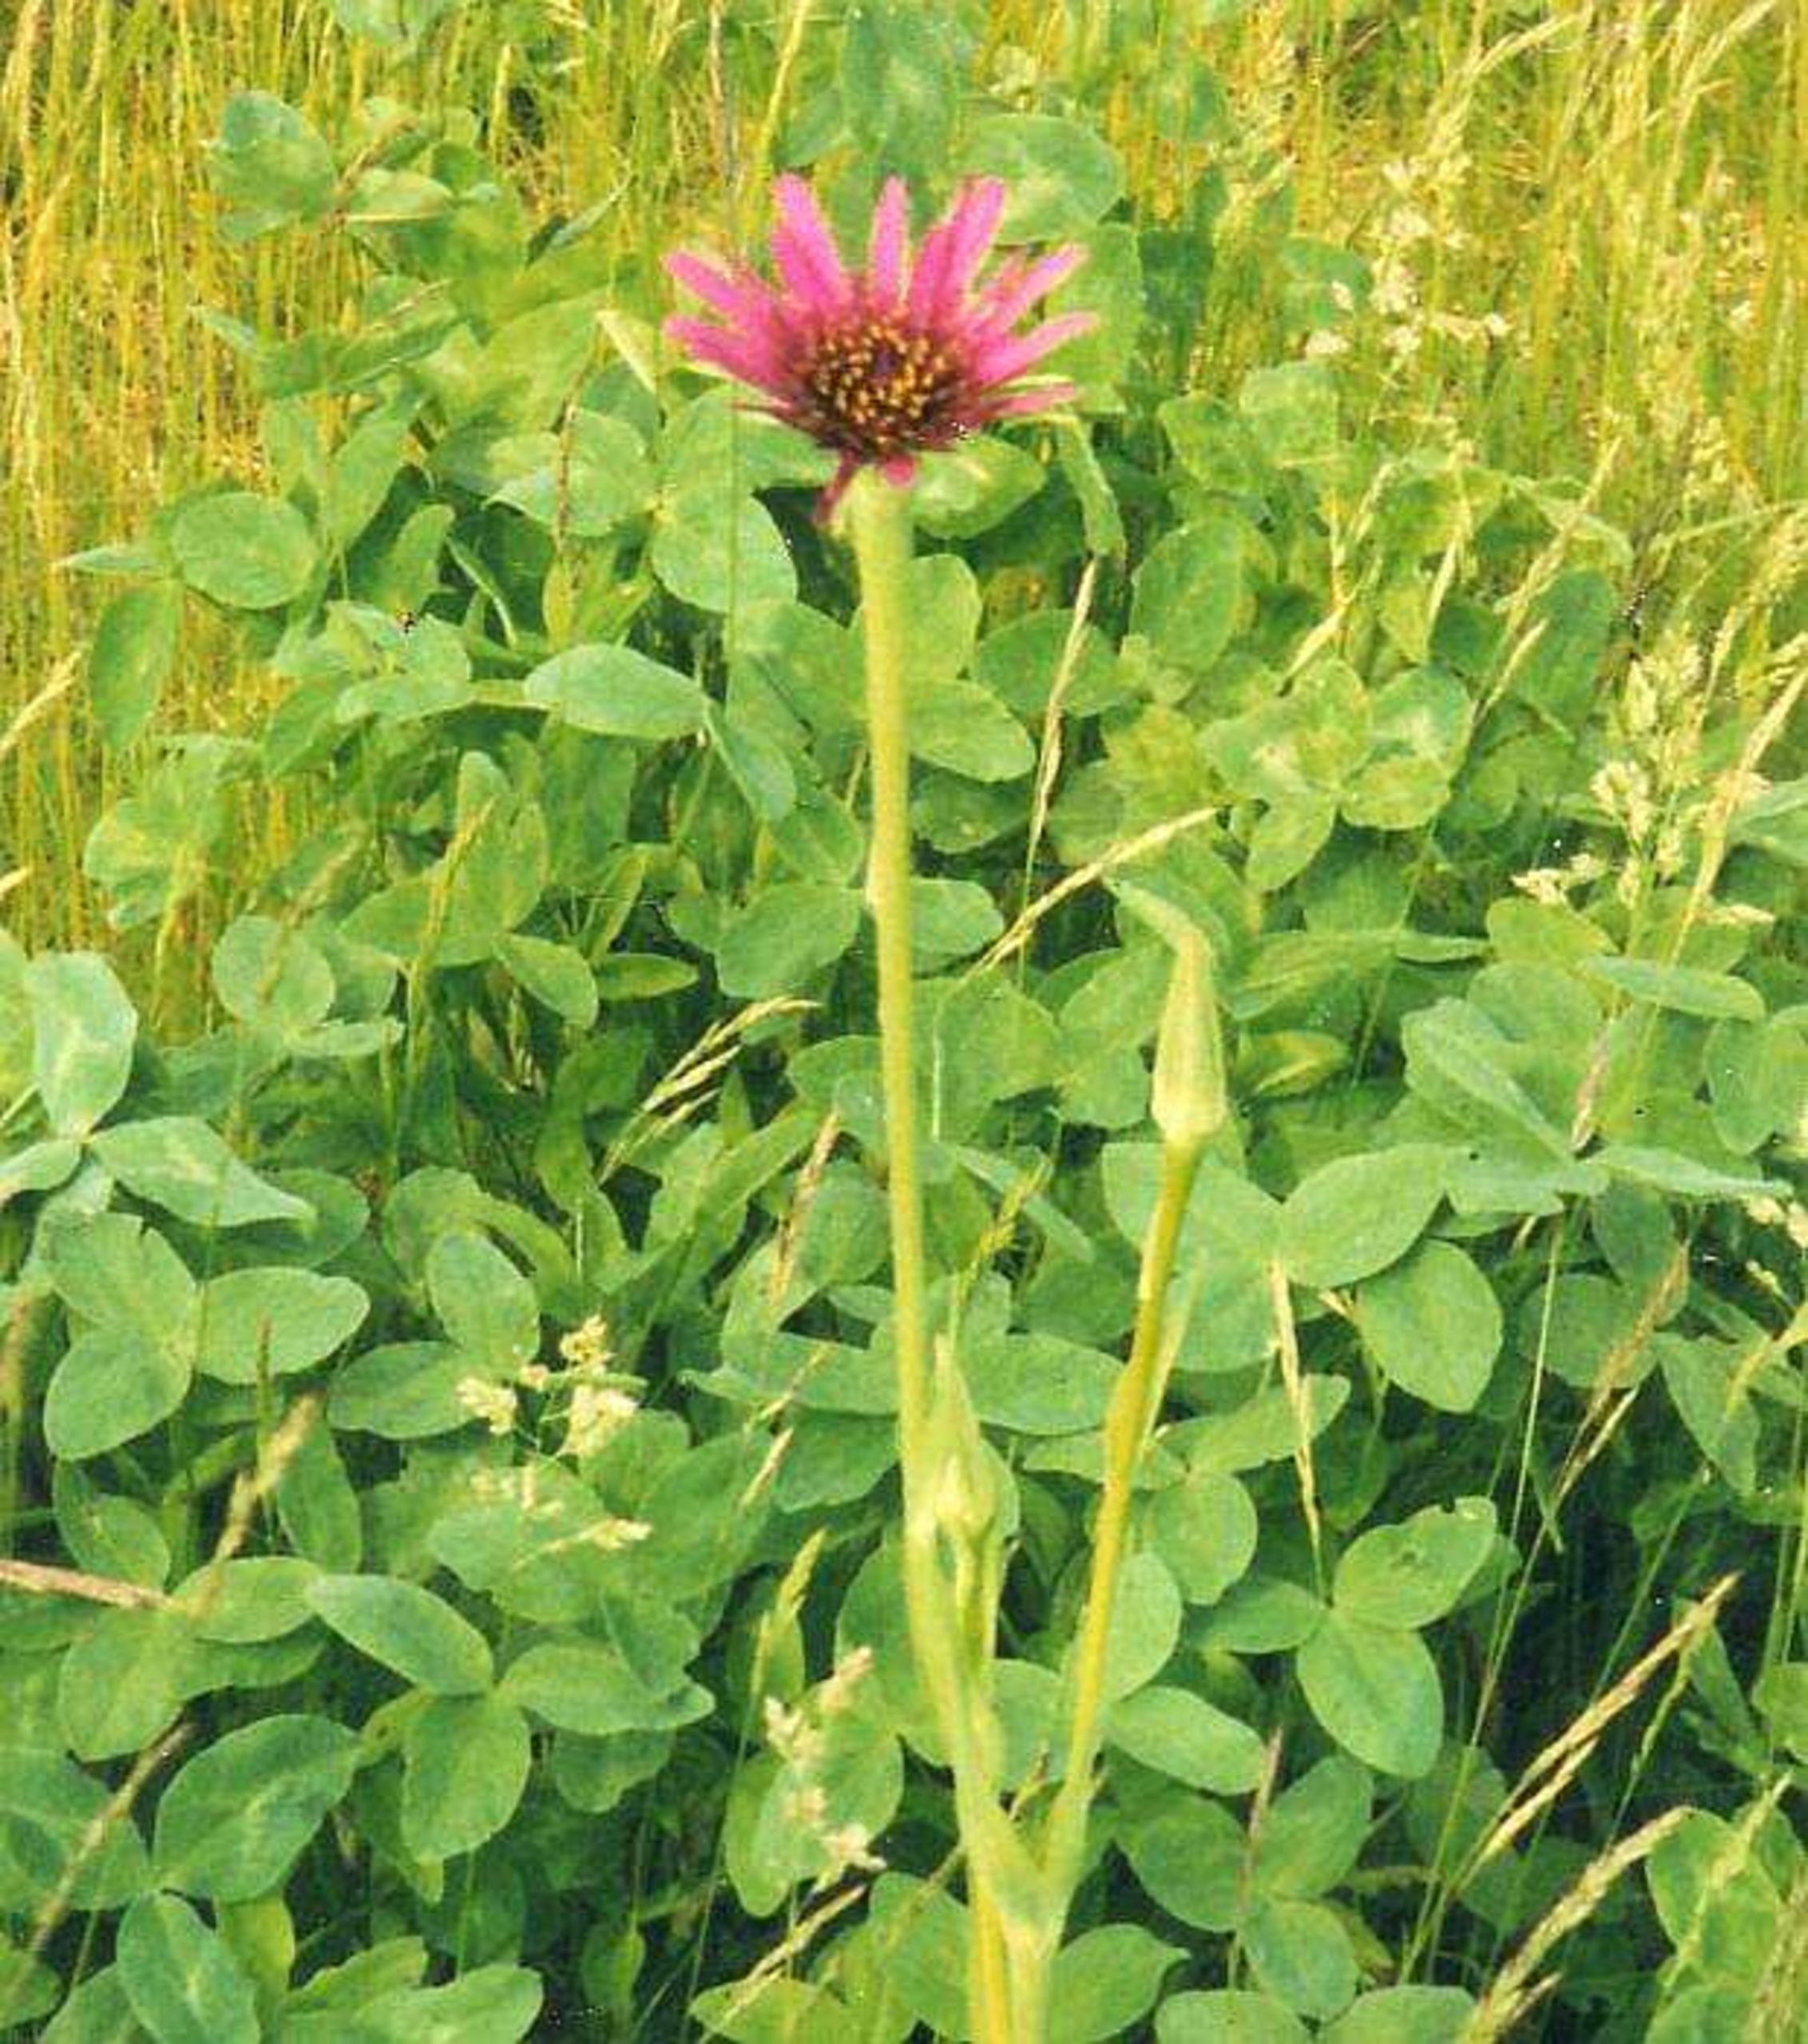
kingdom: Plantae
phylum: Tracheophyta
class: Magnoliopsida
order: Asterales
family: Asteraceae
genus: Tragopogon
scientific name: Tragopogon porrifolius
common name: Havrerod
